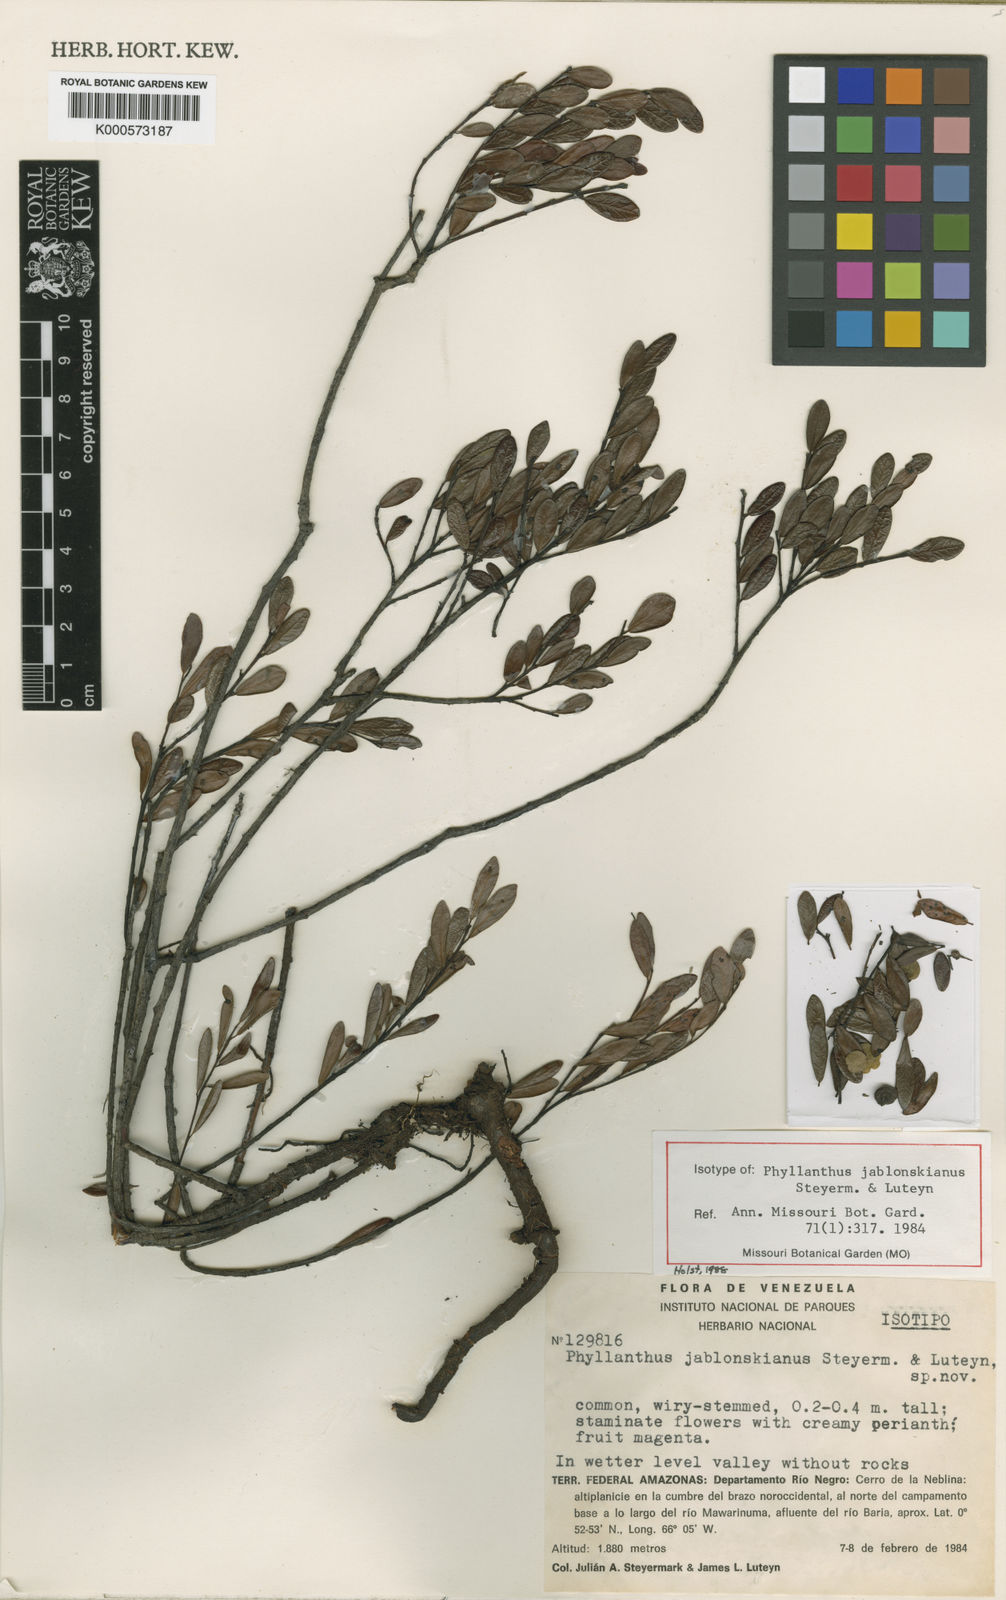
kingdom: Plantae
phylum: Tracheophyta
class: Magnoliopsida
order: Malpighiales
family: Phyllanthaceae
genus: Phyllanthus
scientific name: Phyllanthus jablonskianus
